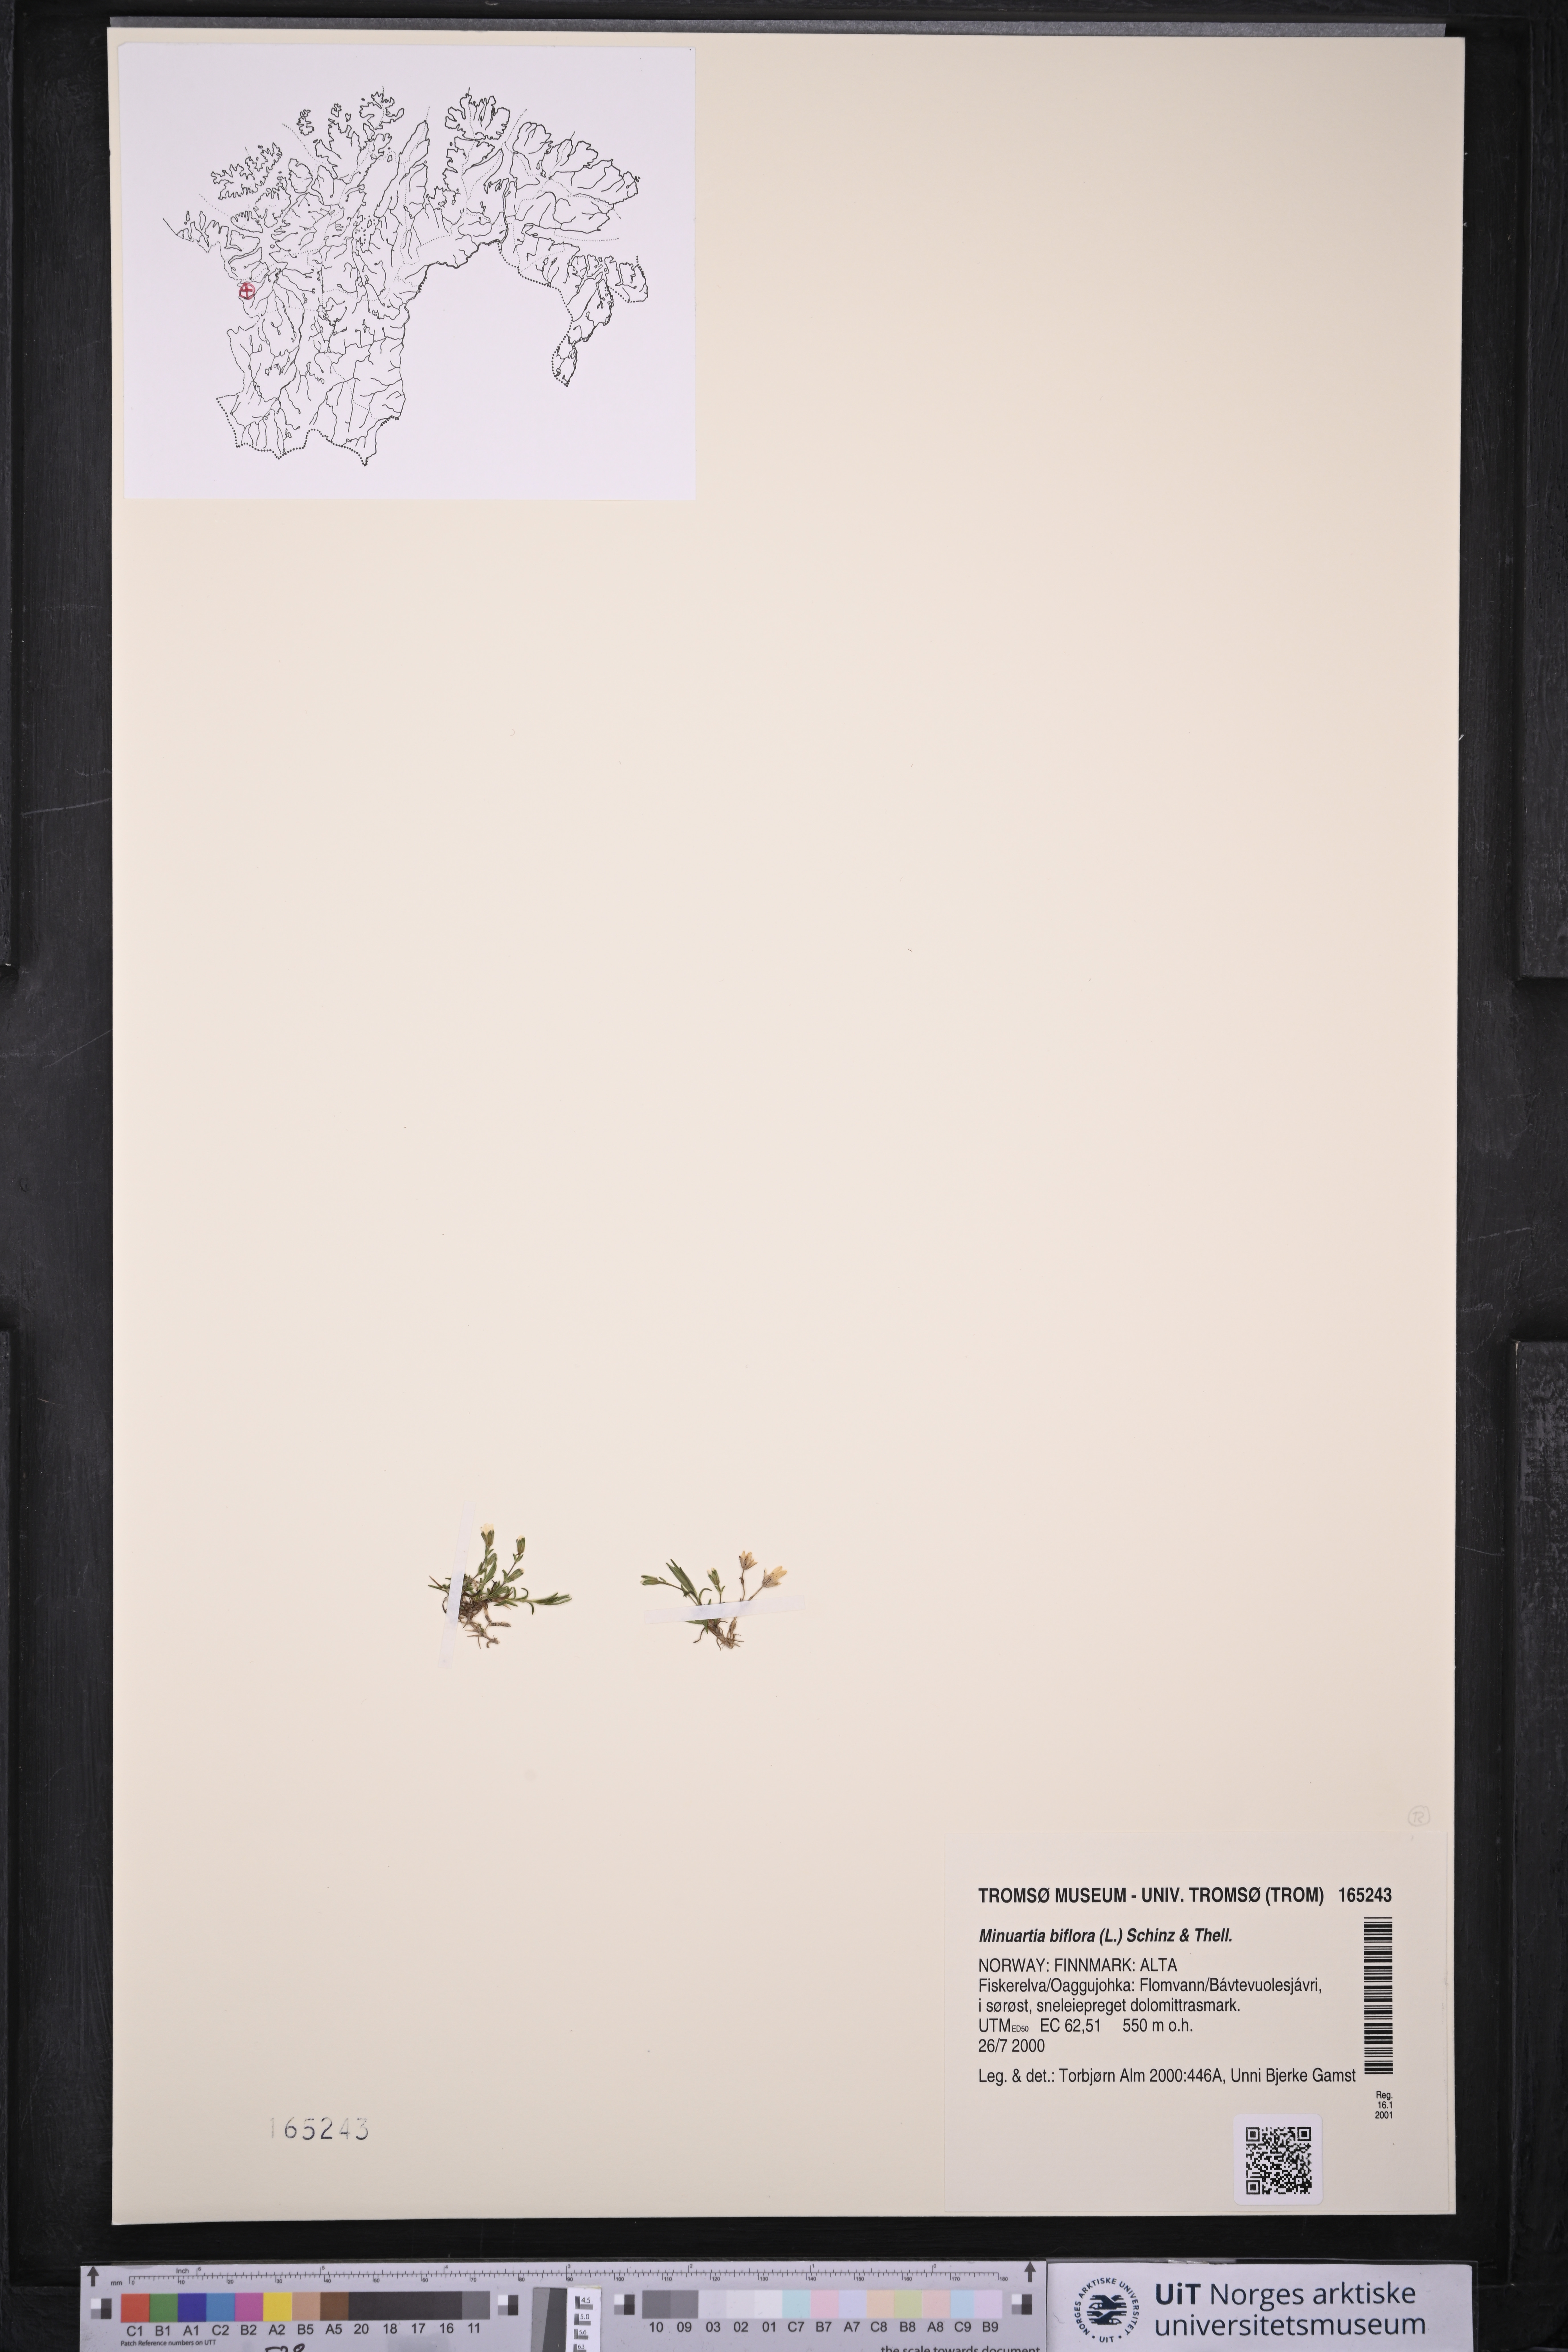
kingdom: Plantae
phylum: Tracheophyta
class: Magnoliopsida
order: Caryophyllales
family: Caryophyllaceae
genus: Cherleria
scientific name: Cherleria biflora
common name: Mountain sandwort
